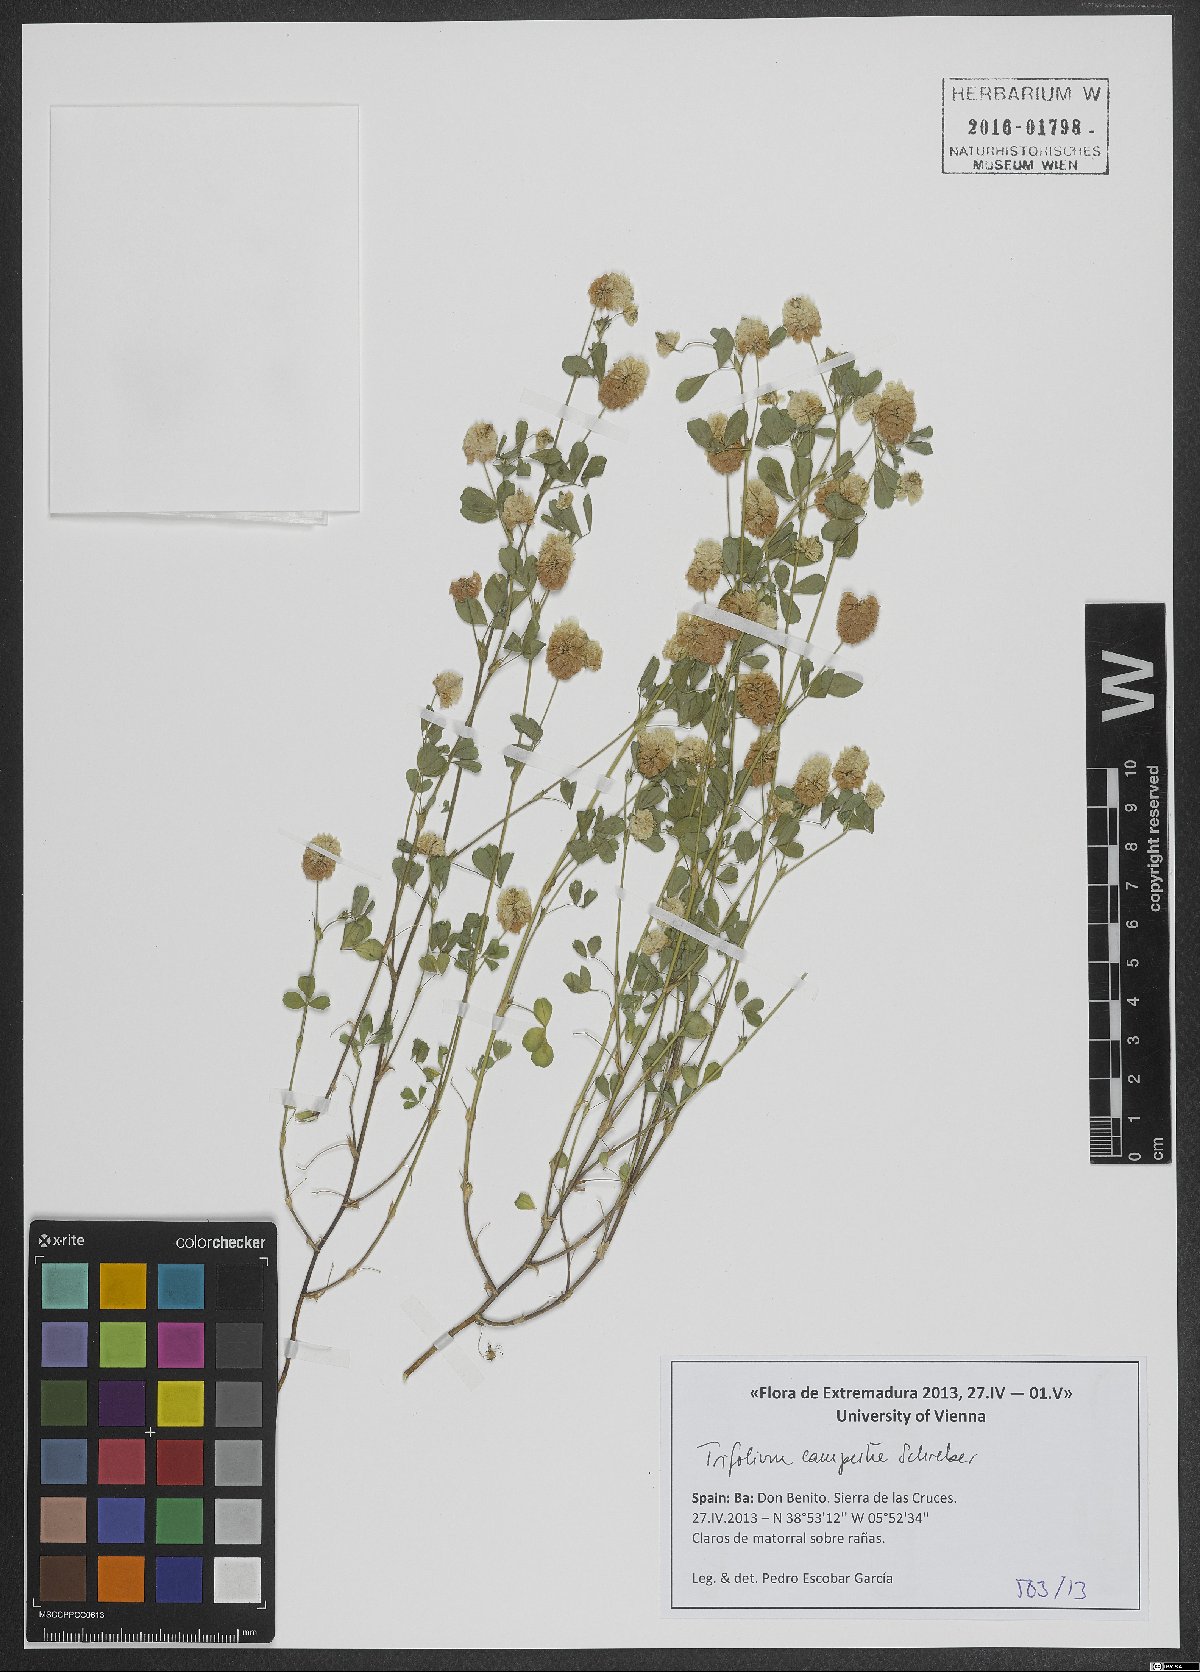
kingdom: Plantae
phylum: Tracheophyta
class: Magnoliopsida
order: Fabales
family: Fabaceae
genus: Trifolium
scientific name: Trifolium campestre
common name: Field clover
